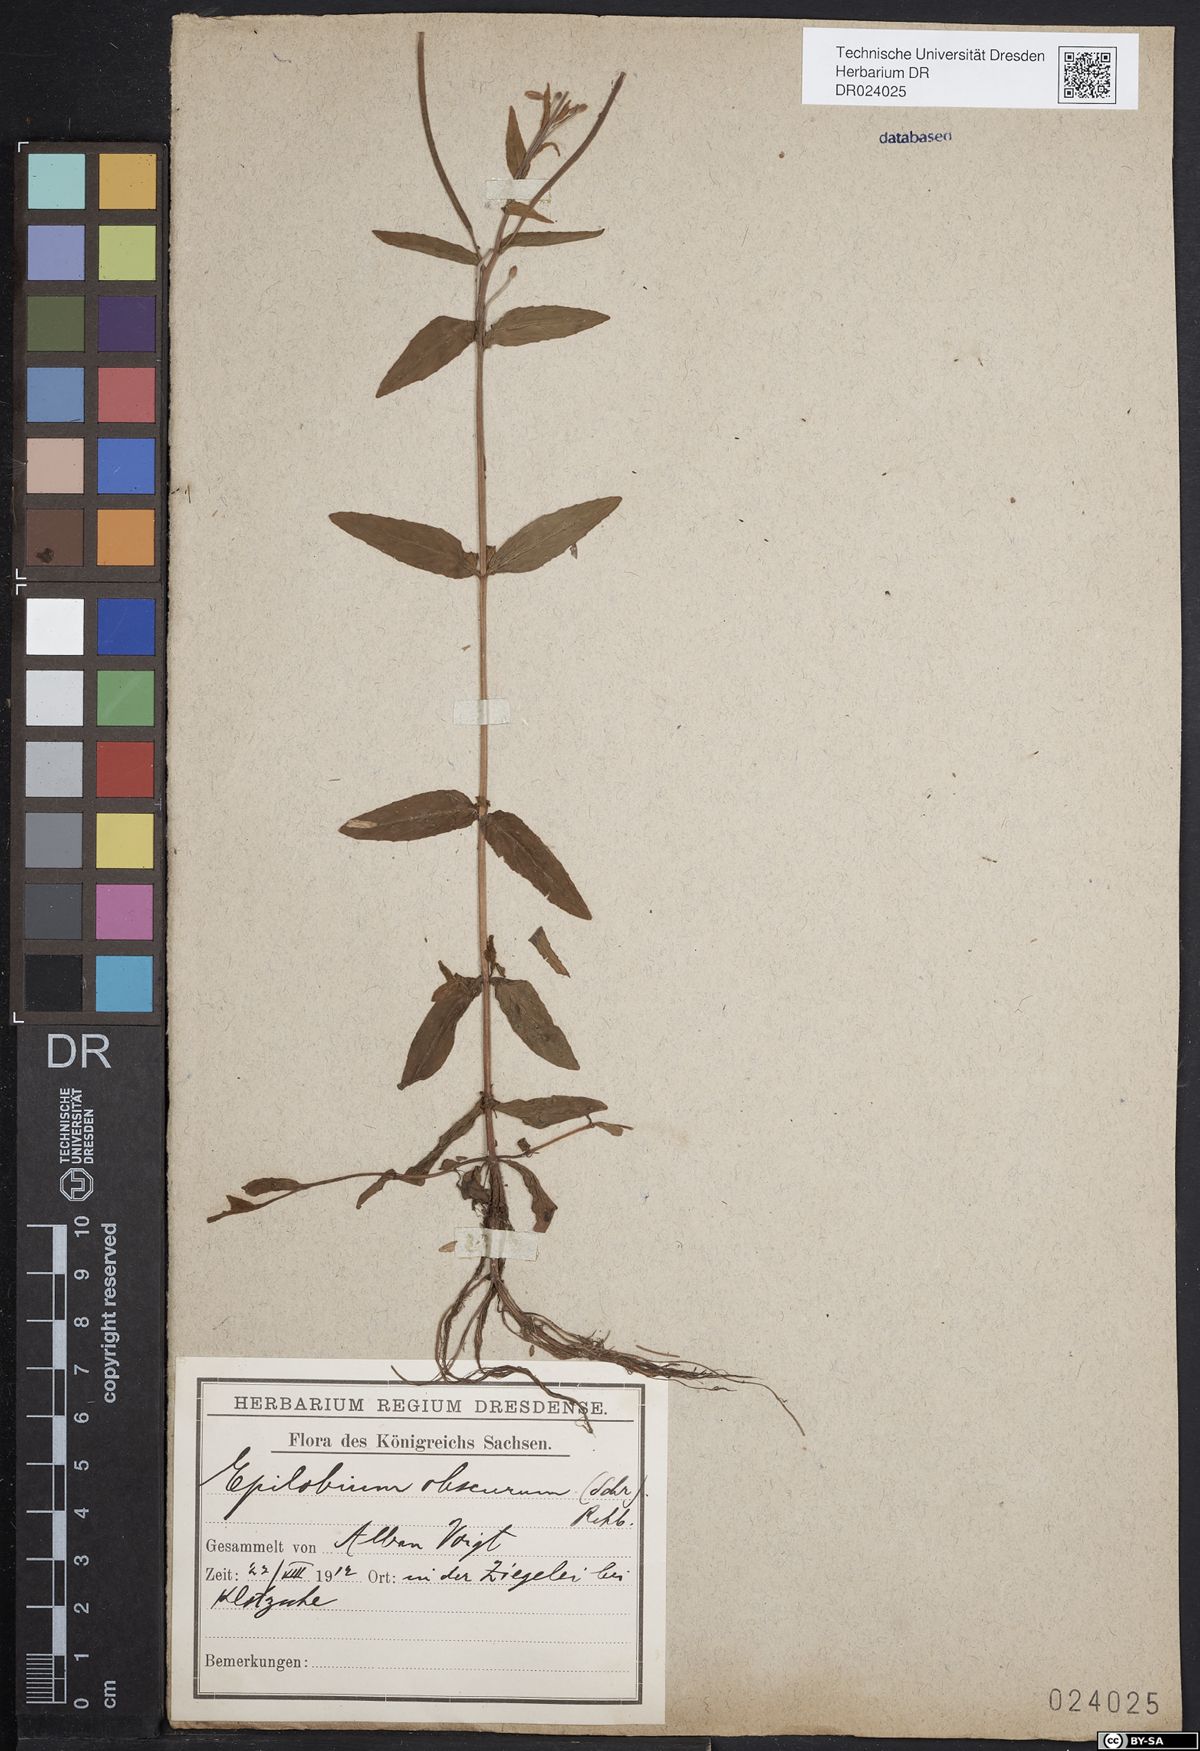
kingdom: Plantae
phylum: Tracheophyta
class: Magnoliopsida
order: Myrtales
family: Onagraceae
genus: Epilobium
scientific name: Epilobium obscurum
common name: Short-fruited willowherb
